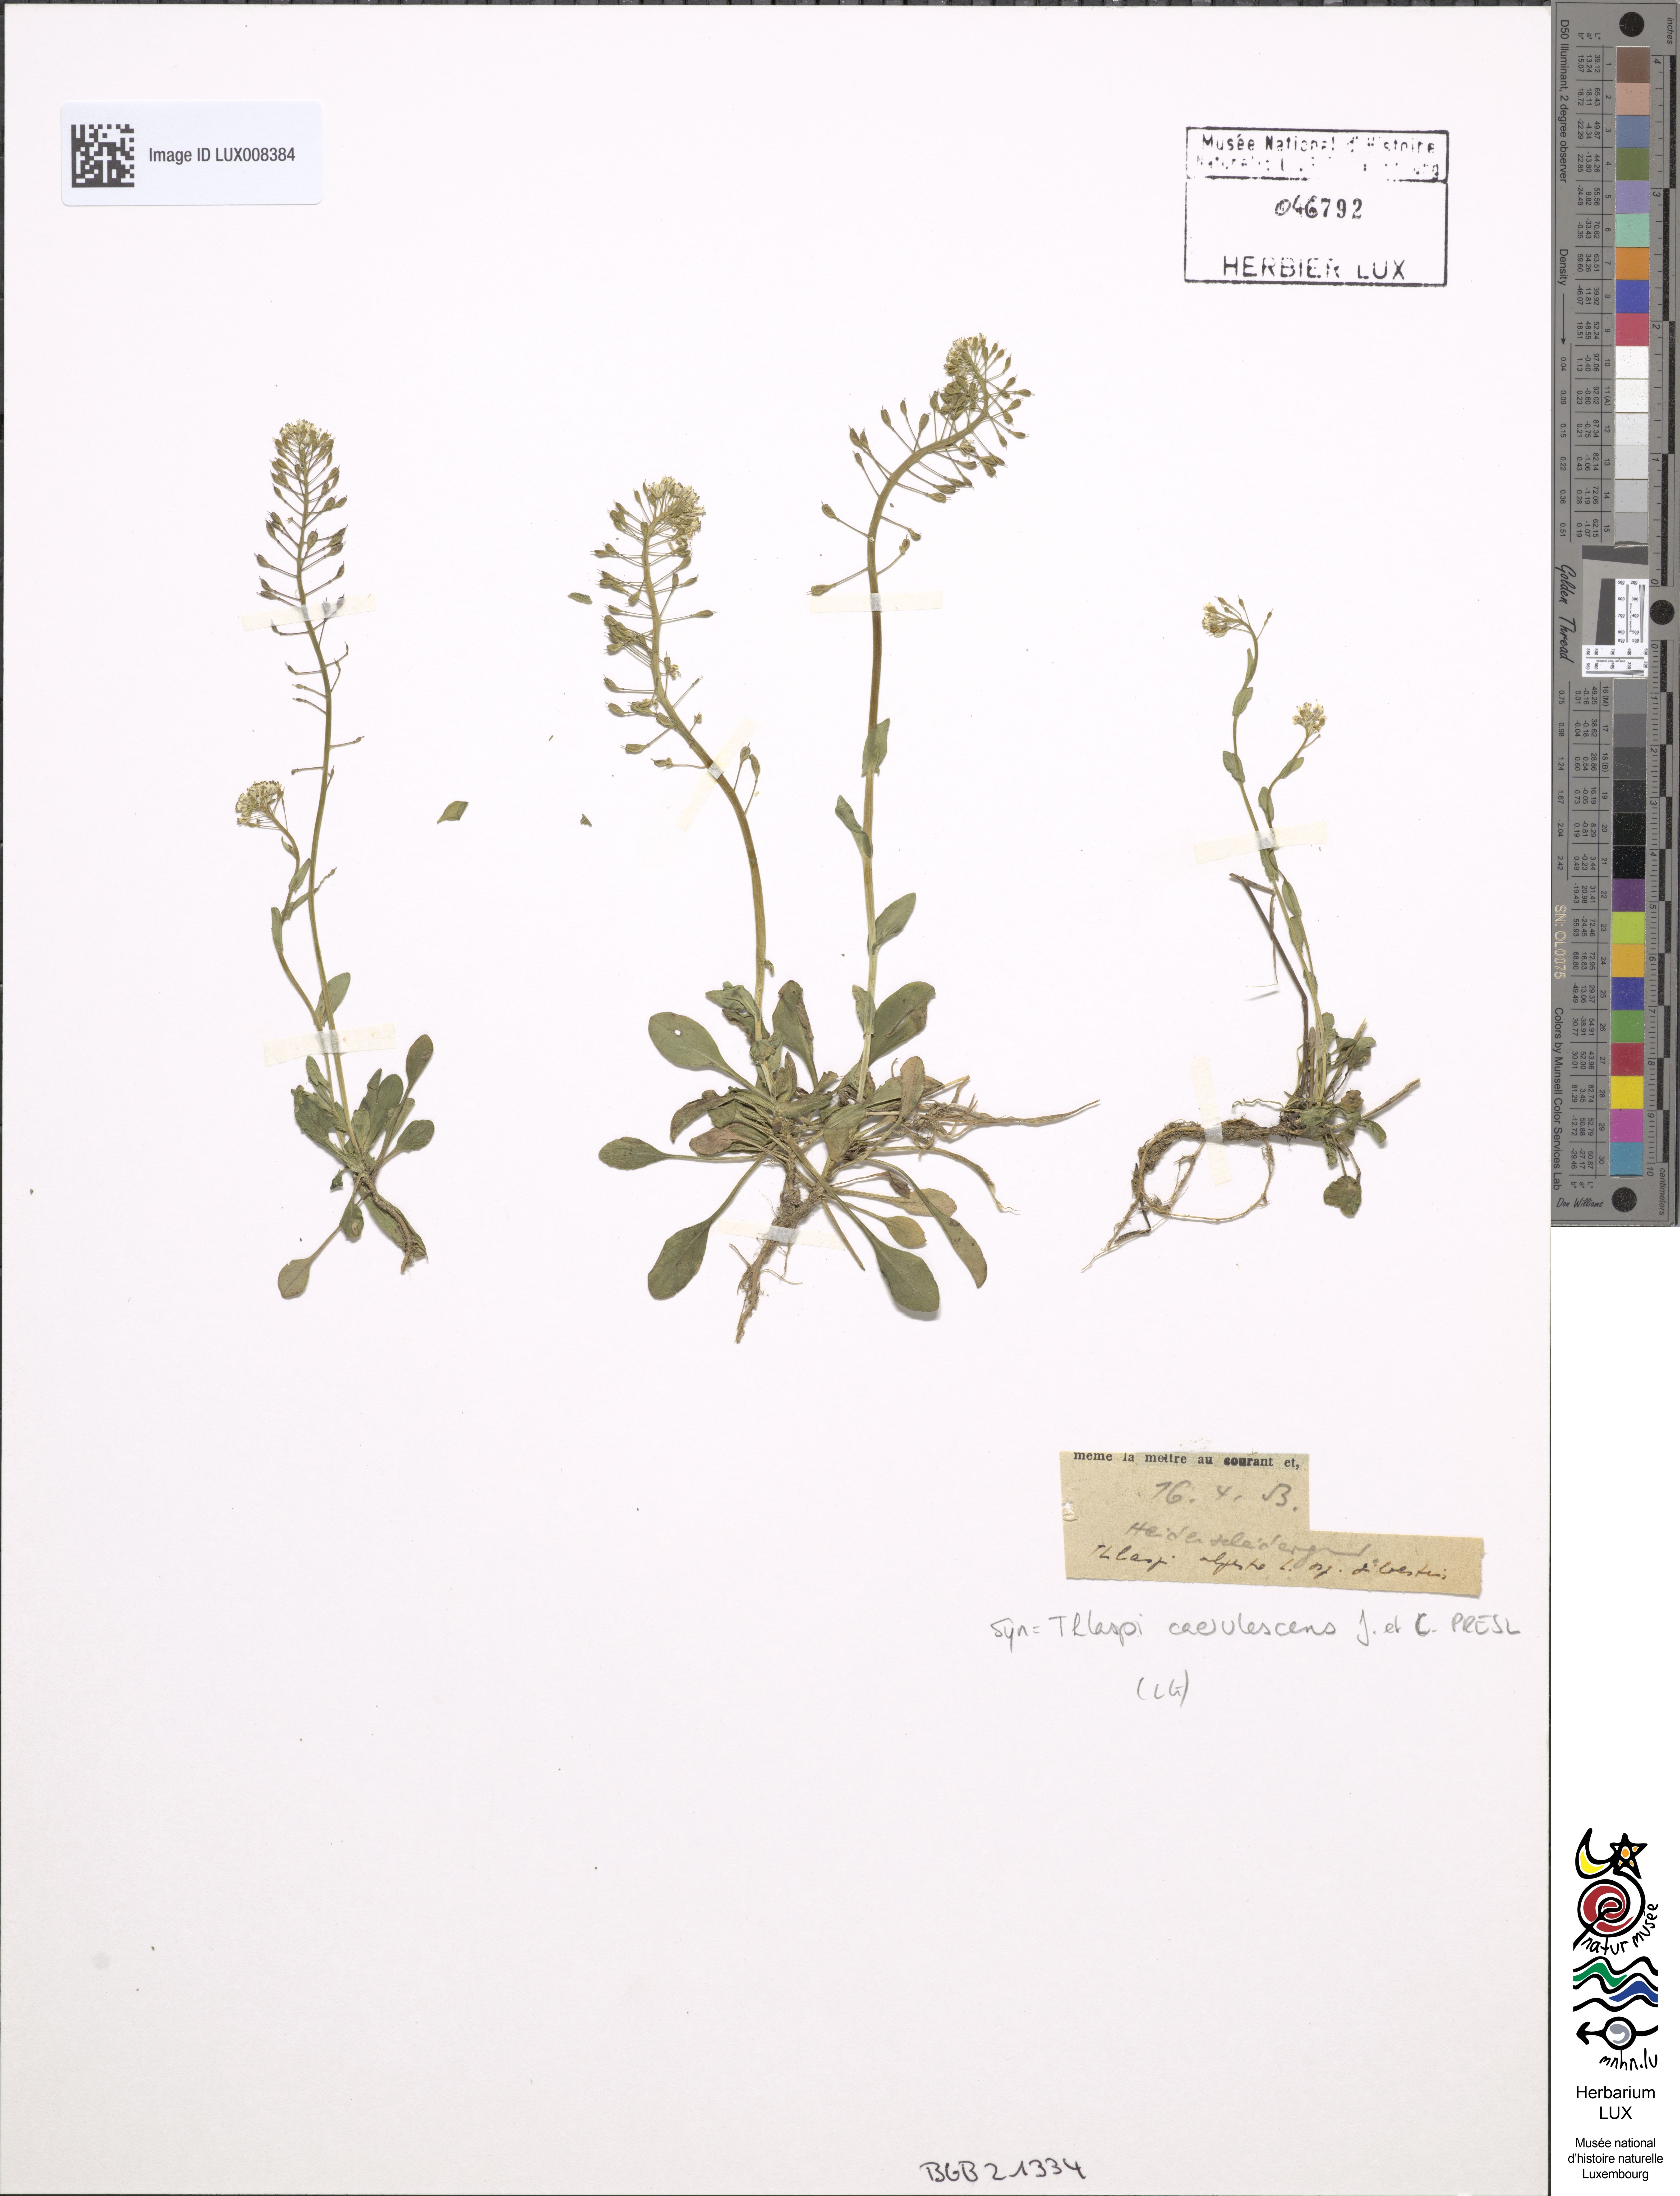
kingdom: Plantae
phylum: Tracheophyta
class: Magnoliopsida
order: Brassicales
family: Brassicaceae
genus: Noccaea
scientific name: Noccaea alpestris
